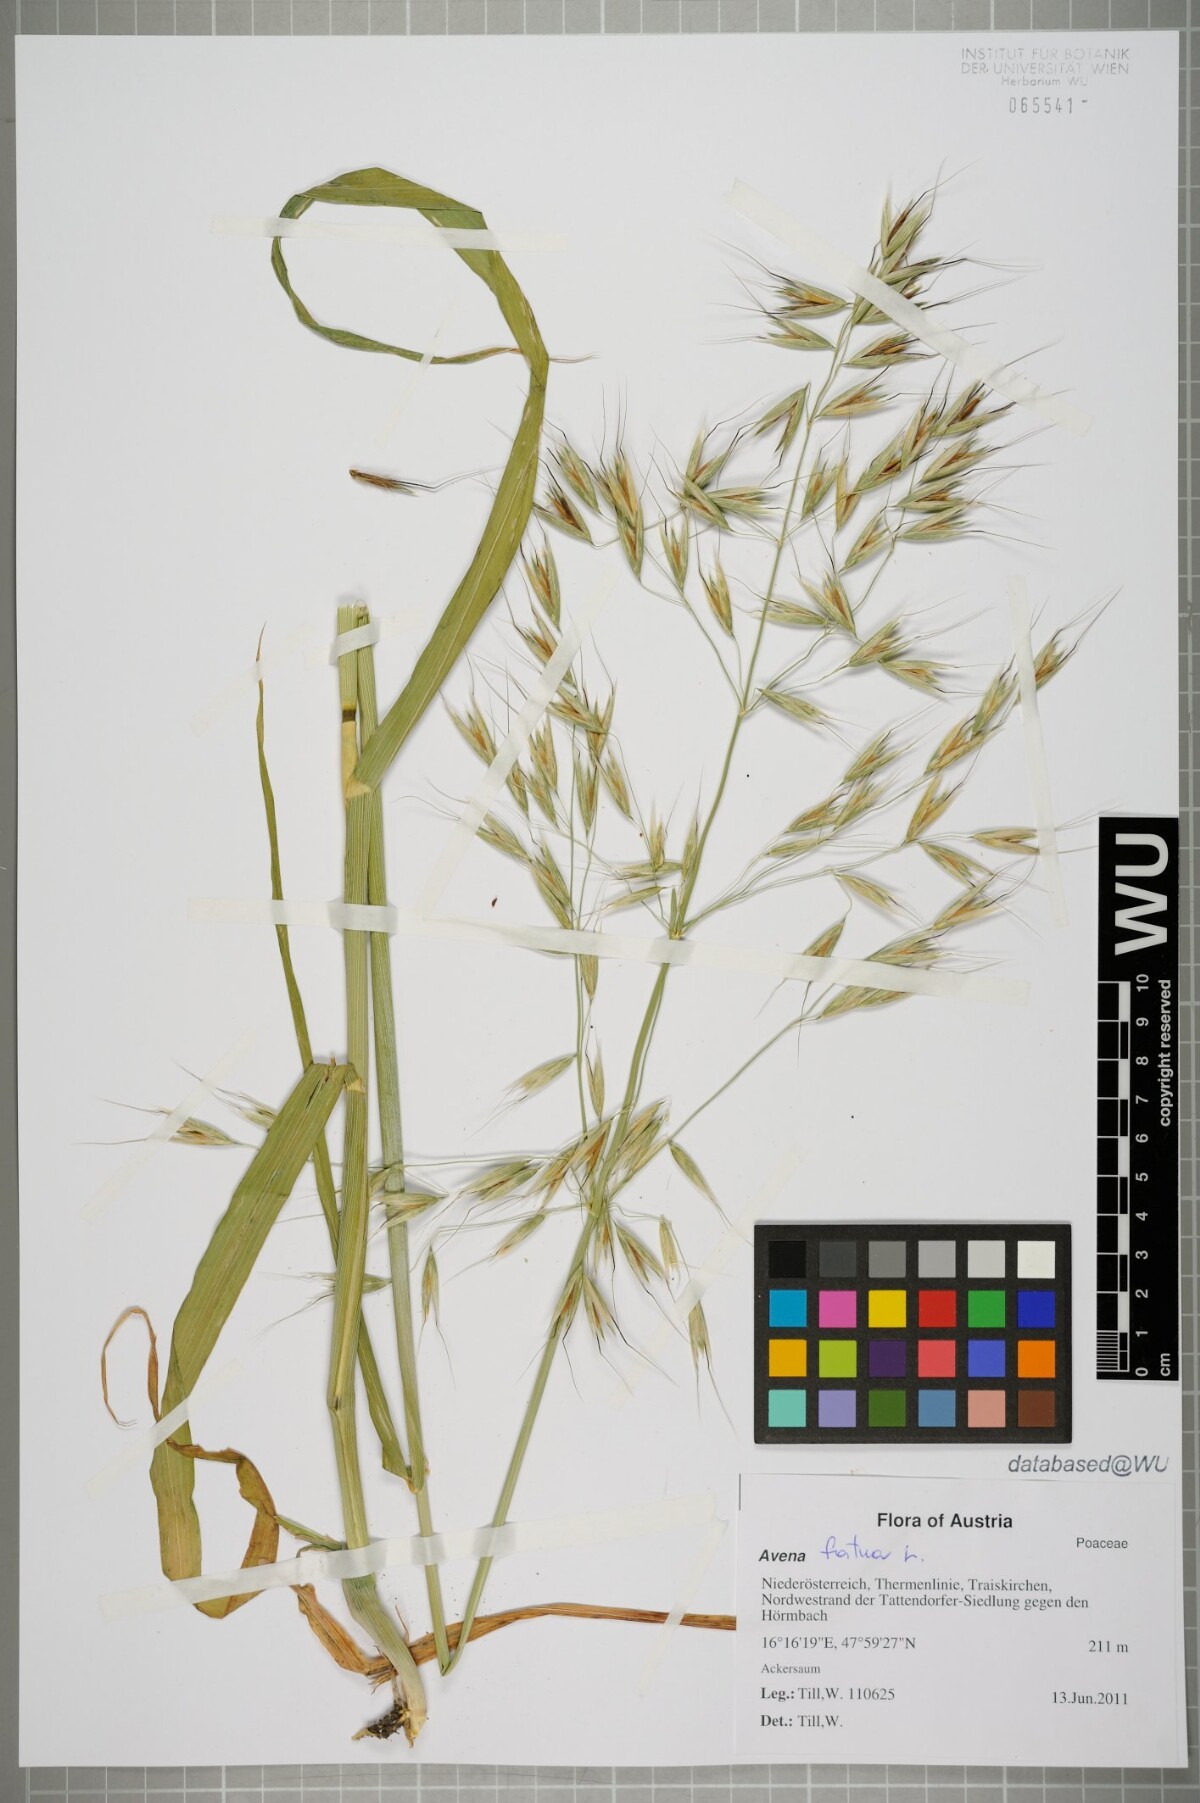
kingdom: Plantae
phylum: Tracheophyta
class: Liliopsida
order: Poales
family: Poaceae
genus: Avena
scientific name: Avena fatua
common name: Wild oat
